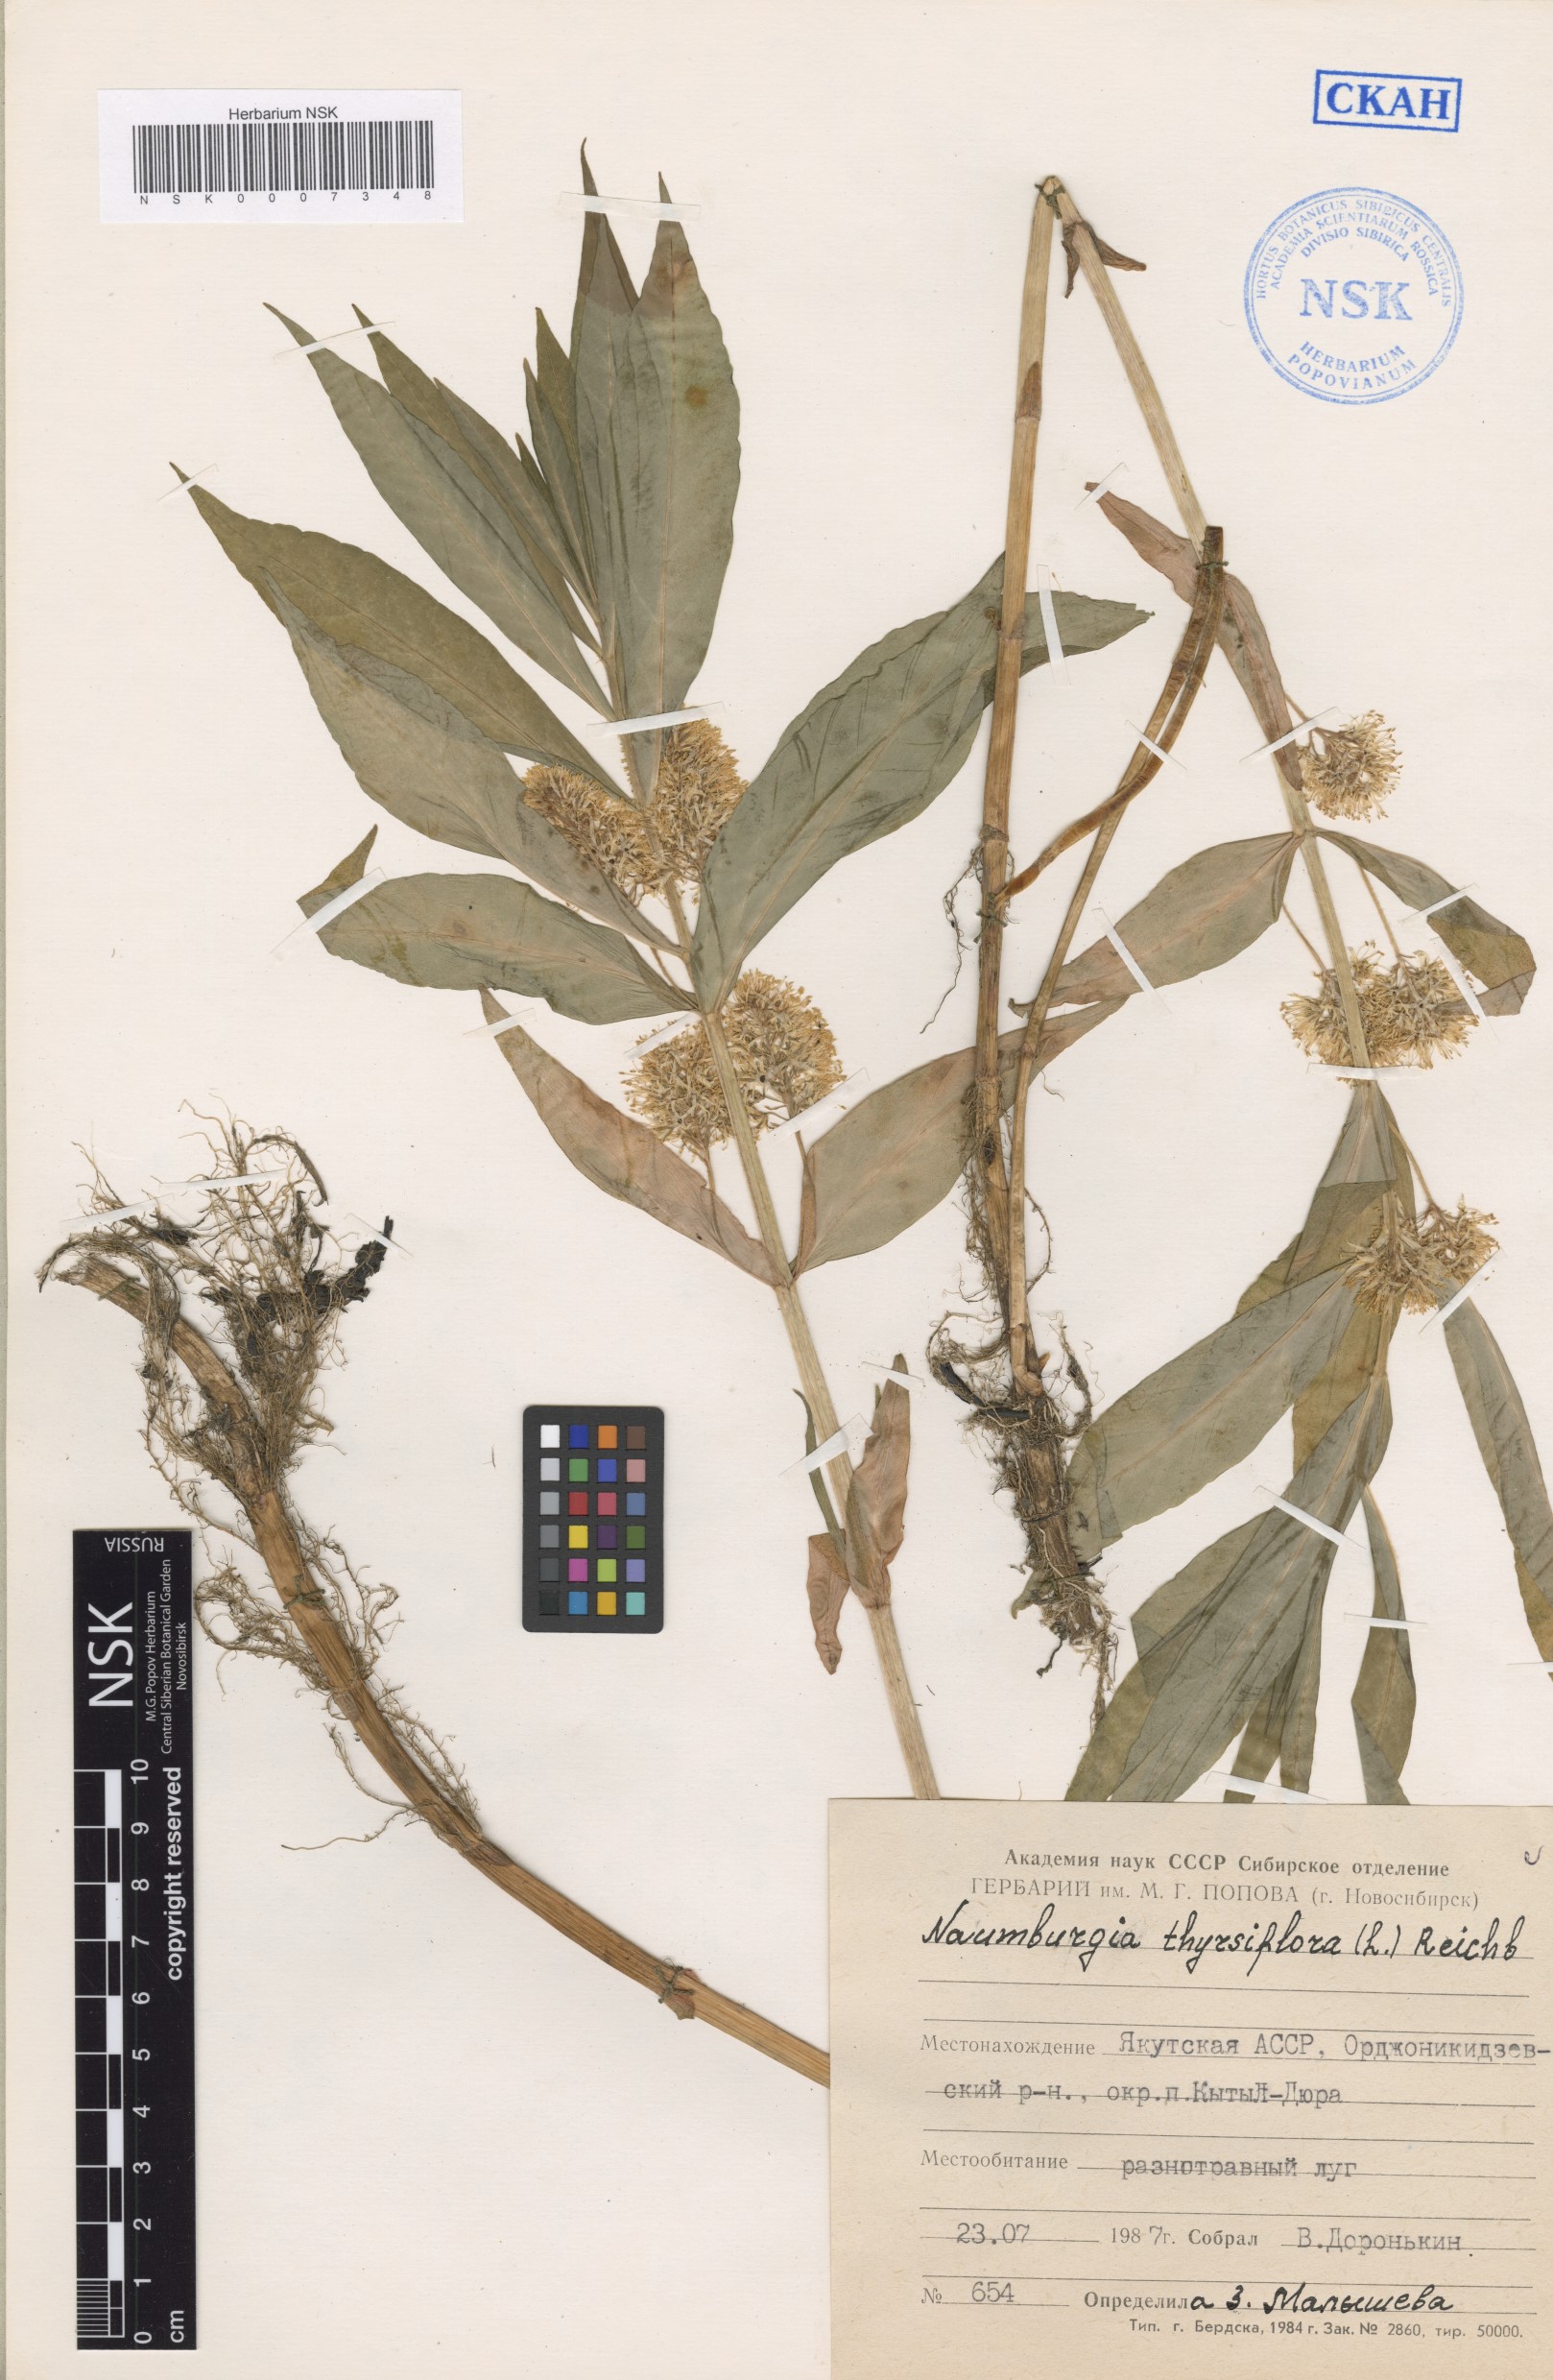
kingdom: Plantae
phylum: Tracheophyta
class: Magnoliopsida
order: Ericales
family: Primulaceae
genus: Lysimachia
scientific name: Lysimachia thyrsiflora
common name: Tufted loosestrife
